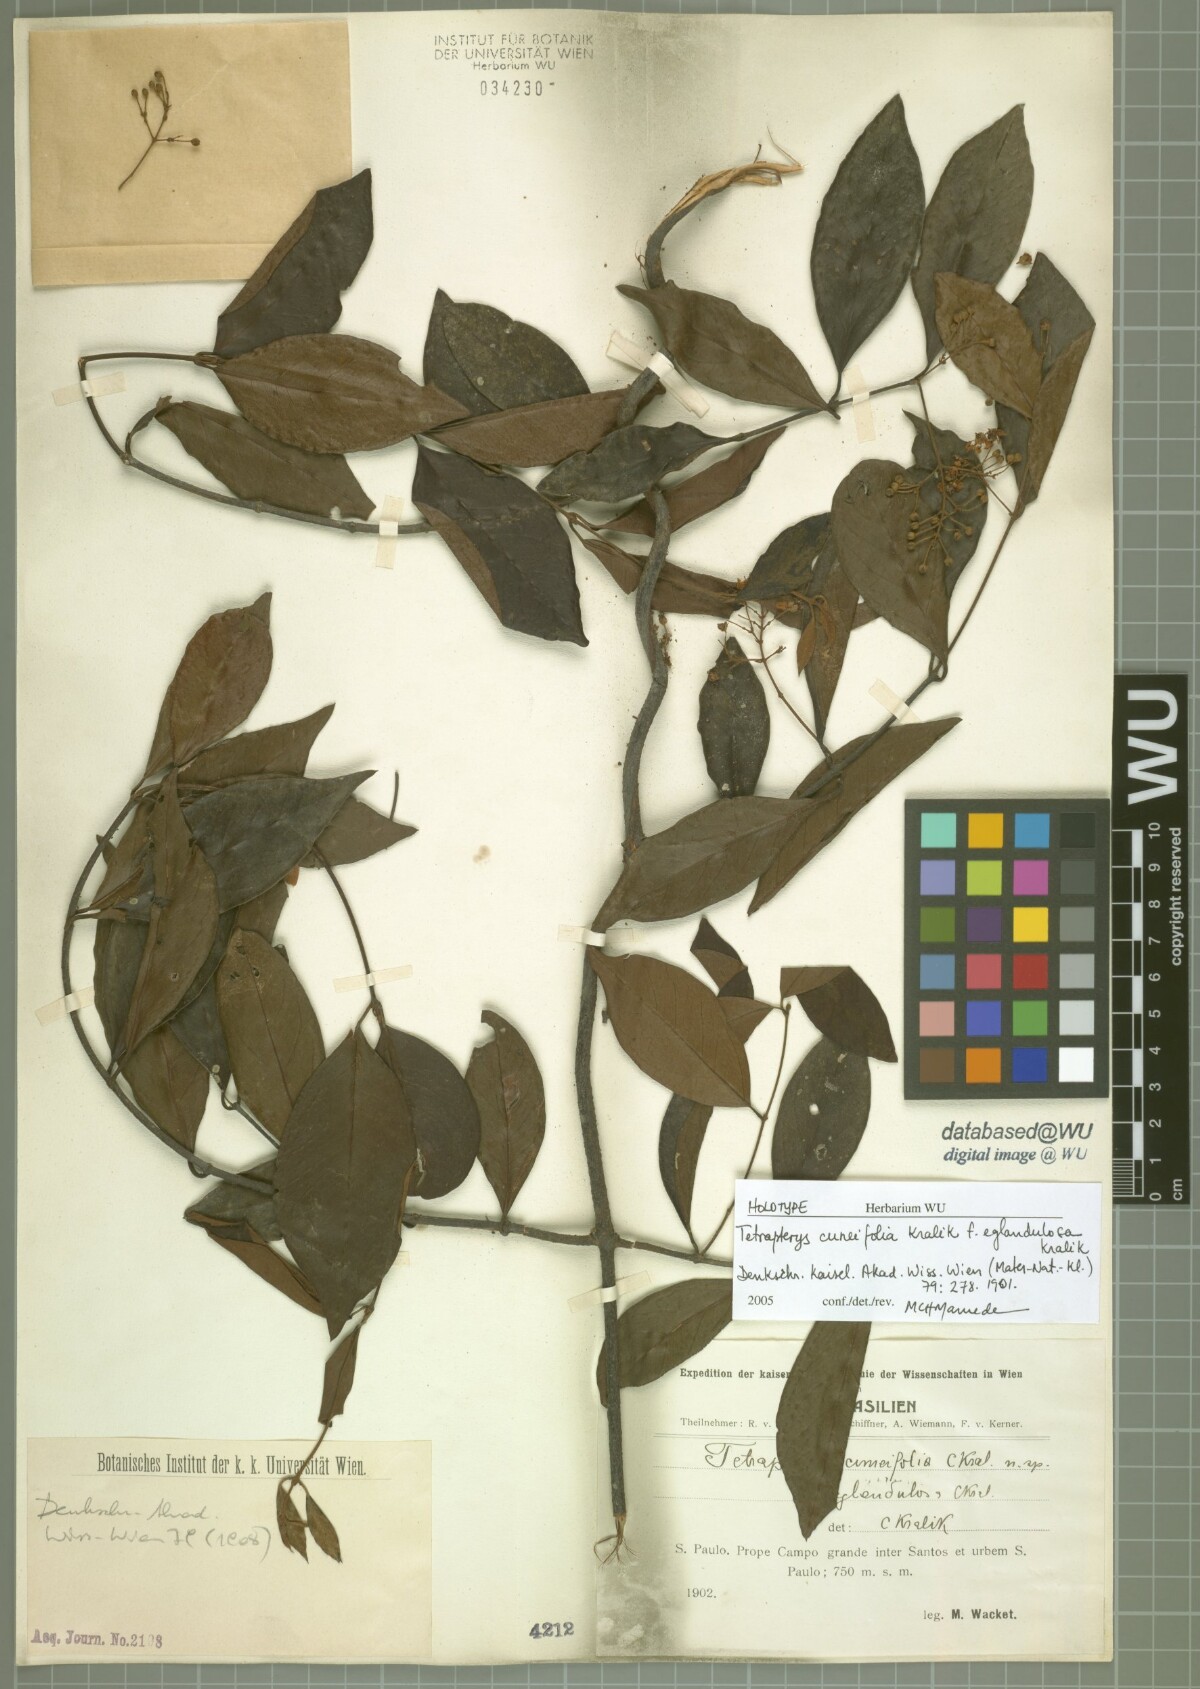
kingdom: Plantae
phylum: Tracheophyta
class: Magnoliopsida
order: Malpighiales
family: Malpighiaceae
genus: Niedenzuella
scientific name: Niedenzuella lucida
